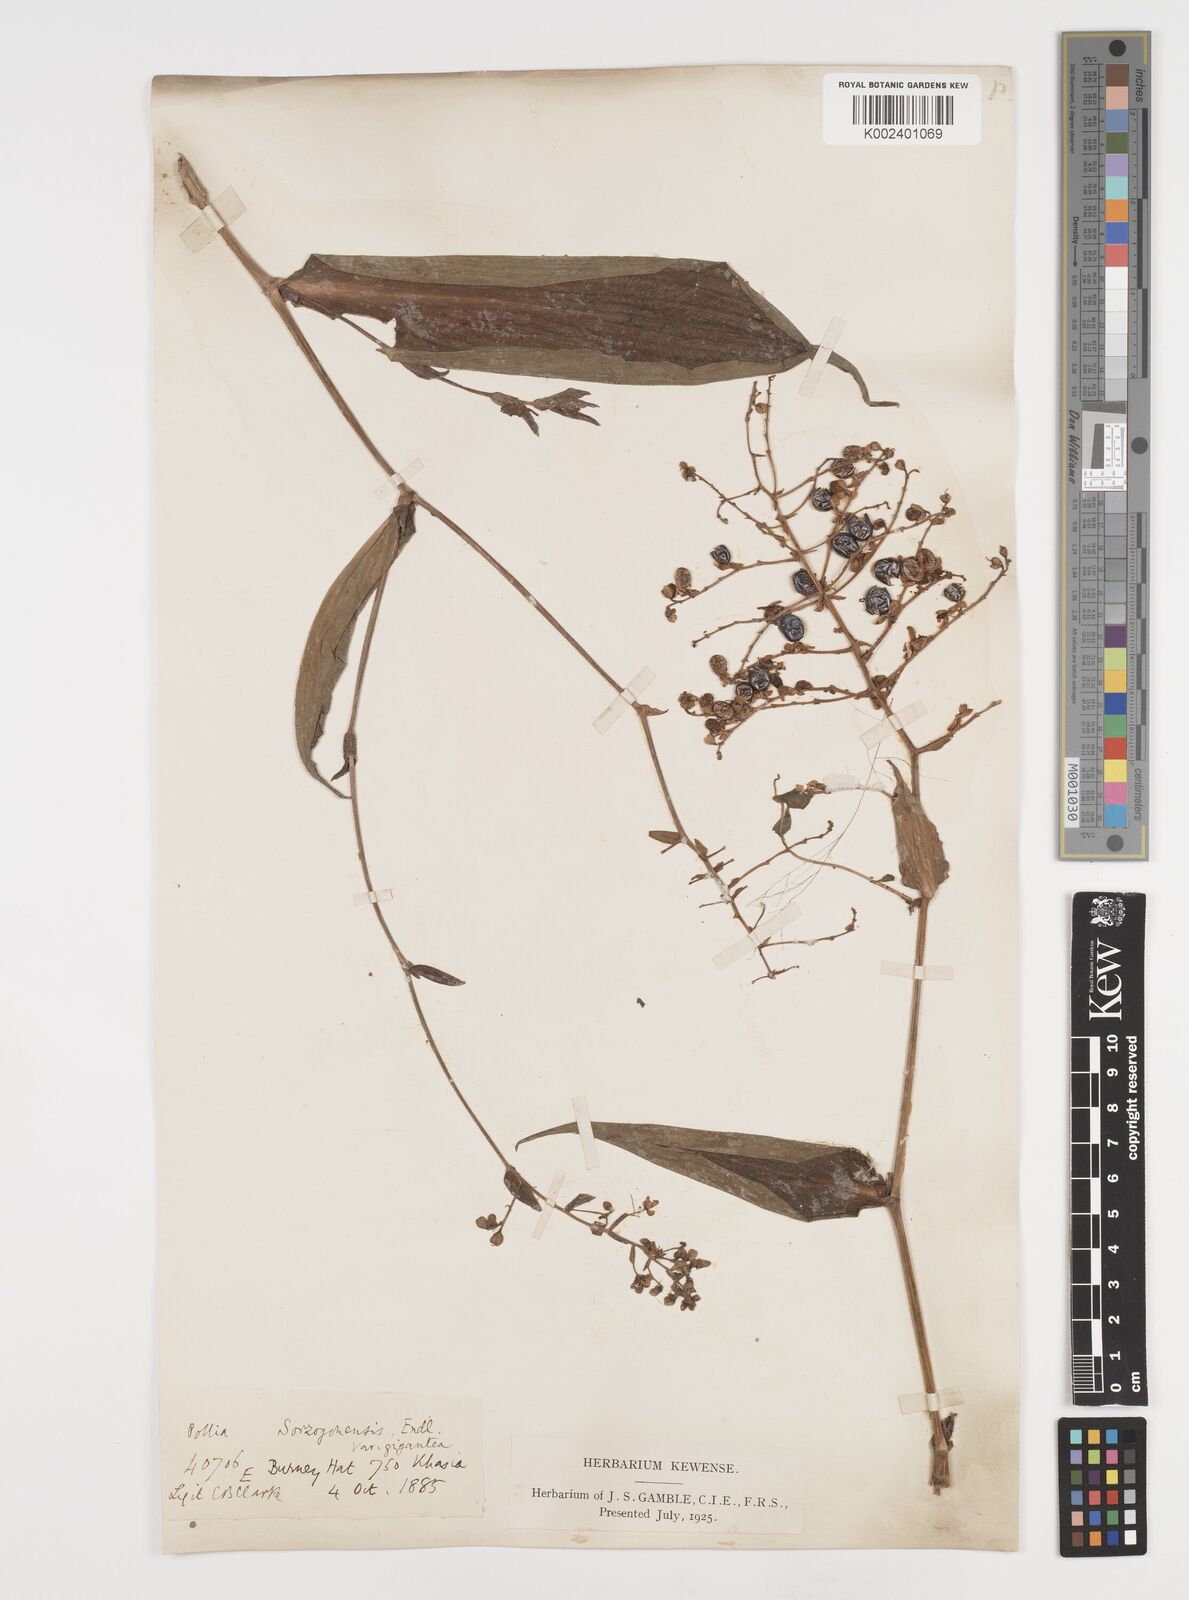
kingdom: Plantae
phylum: Tracheophyta
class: Liliopsida
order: Commelinales
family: Commelinaceae
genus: Pollia
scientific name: Pollia secundiflora
